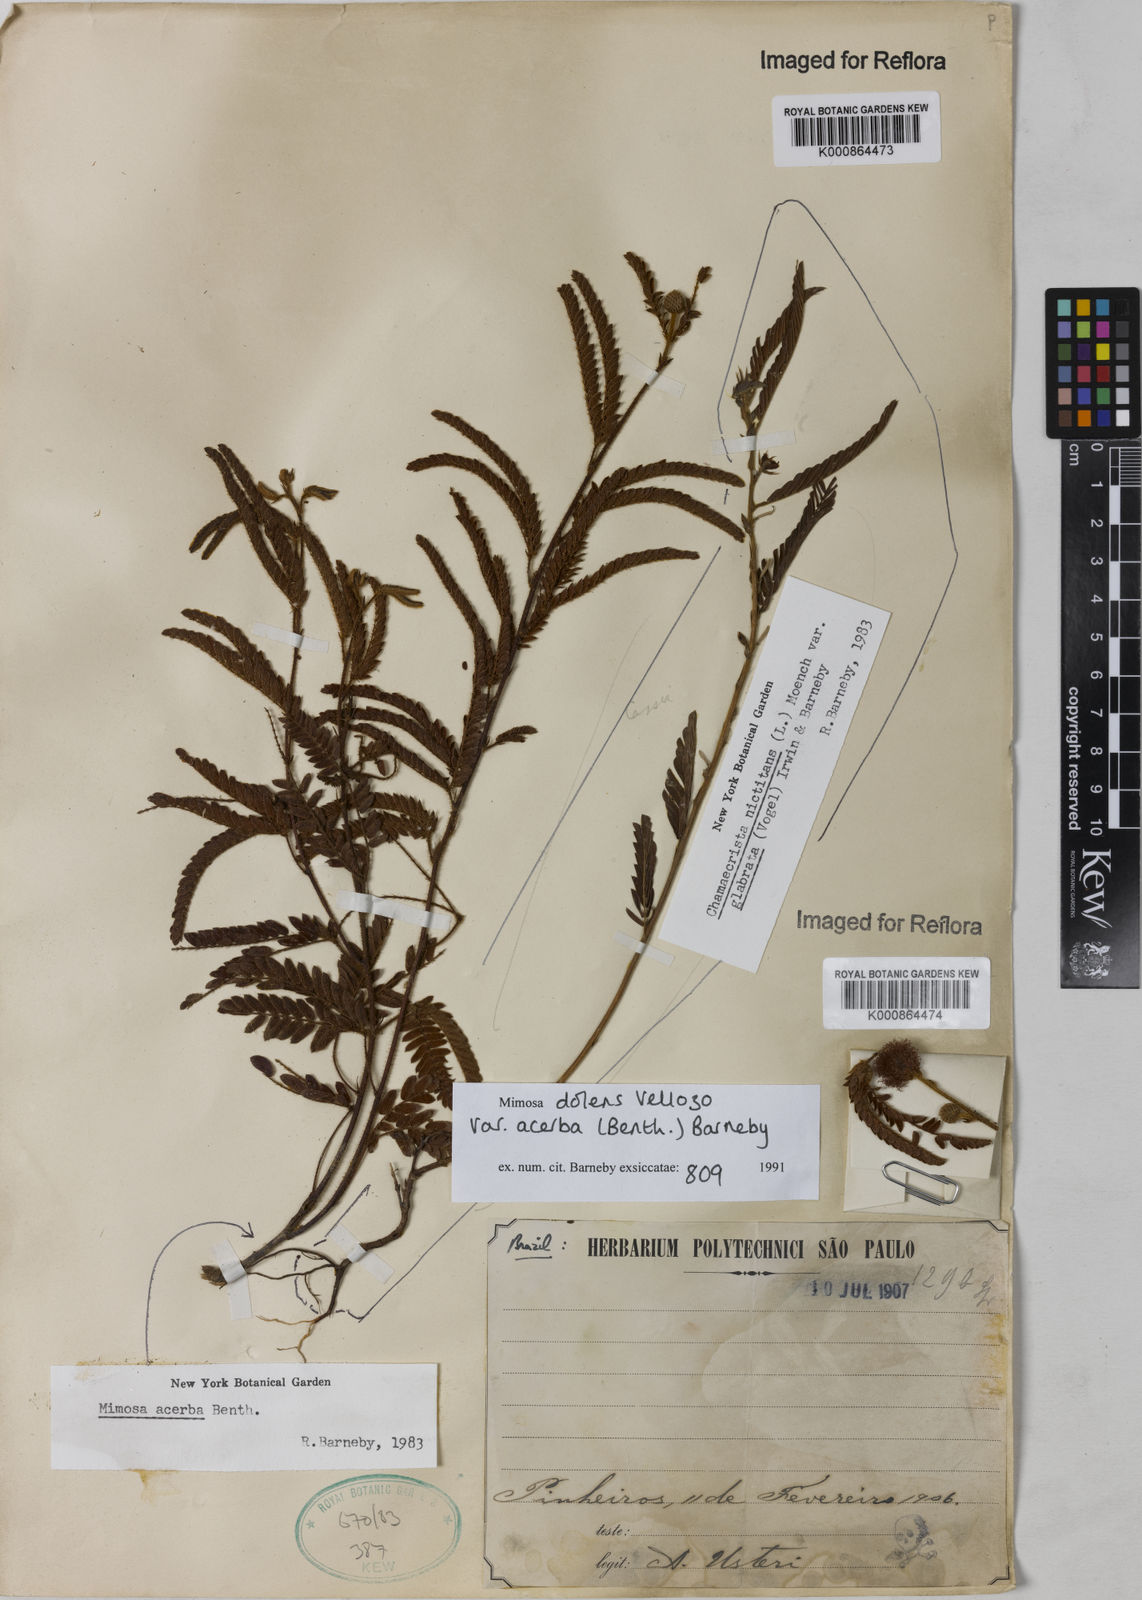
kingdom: Plantae
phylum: Tracheophyta
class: Magnoliopsida
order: Fabales
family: Fabaceae
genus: Mimosa
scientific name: Mimosa dolens
